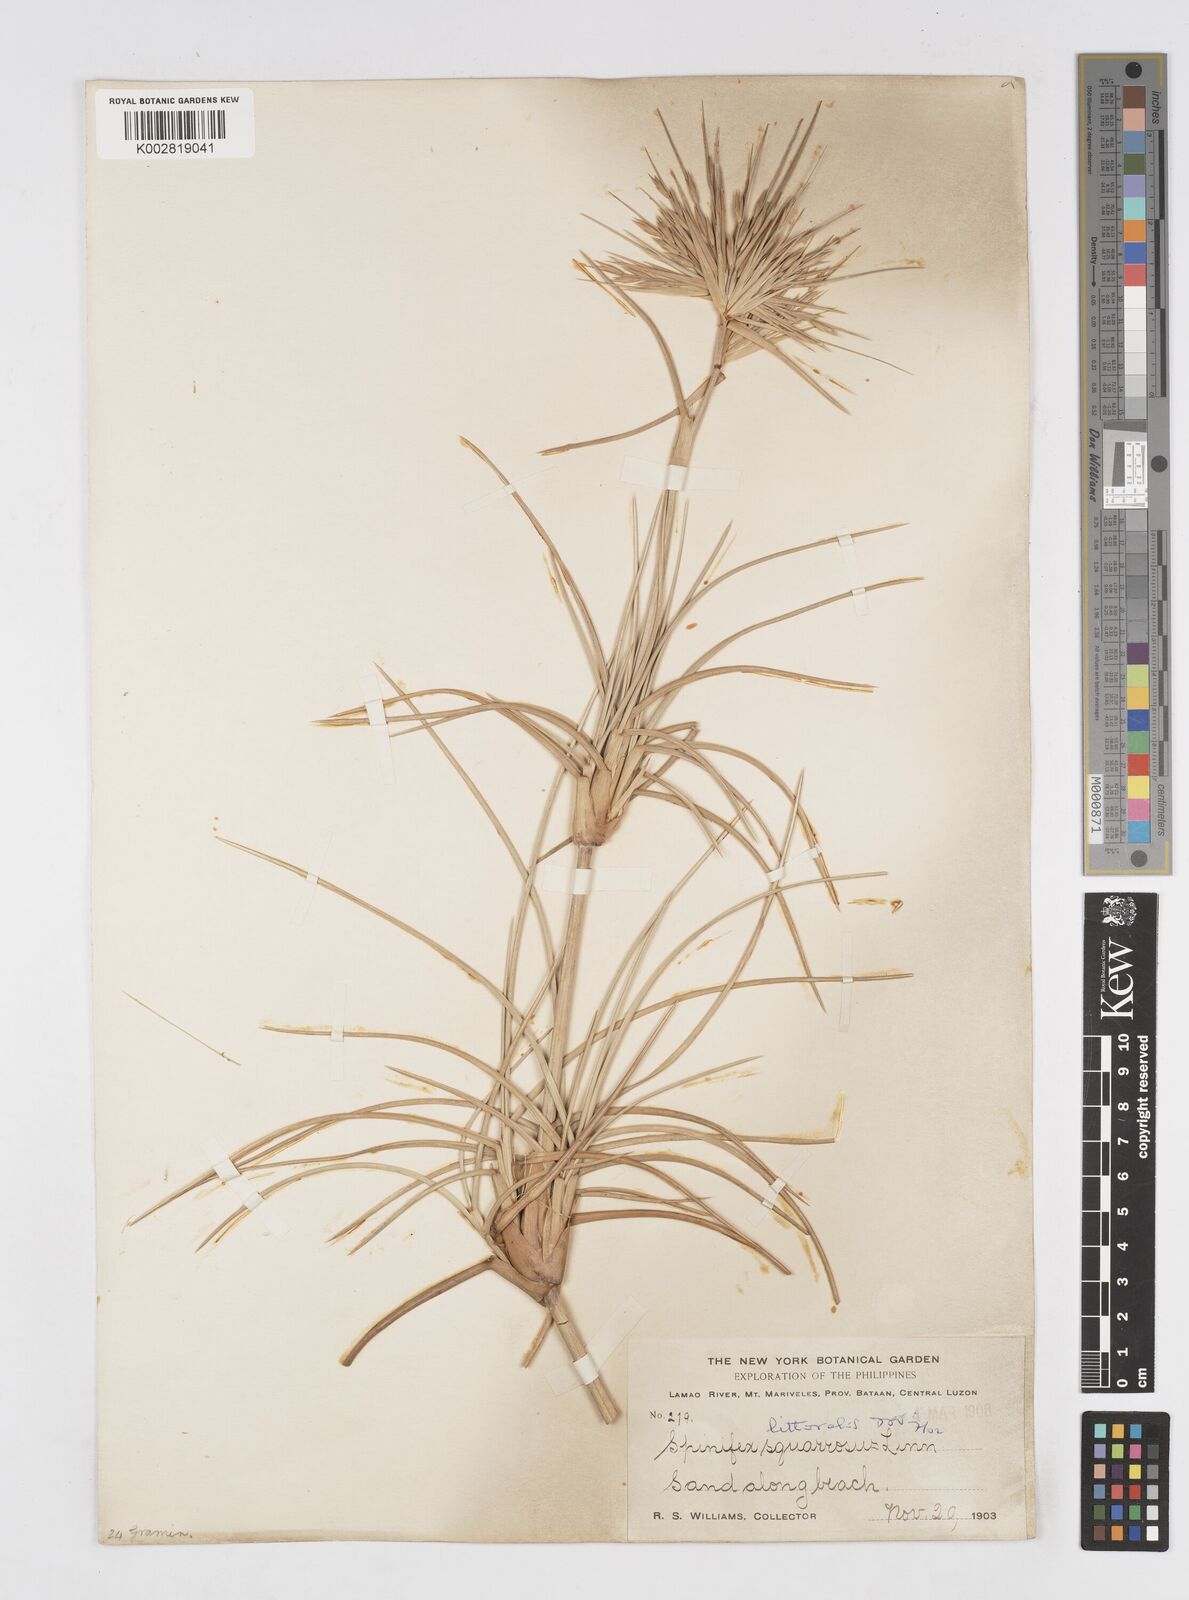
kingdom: Plantae
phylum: Tracheophyta
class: Liliopsida
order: Poales
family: Poaceae
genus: Spinifex
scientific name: Spinifex littoreus
